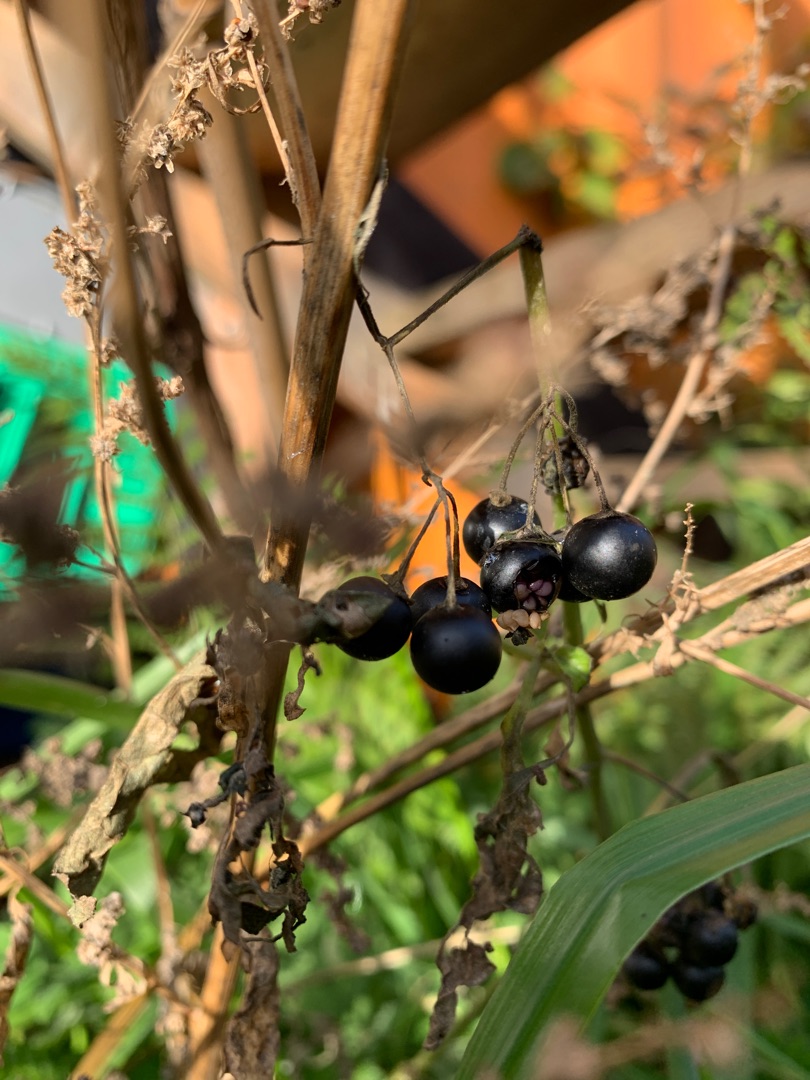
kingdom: Plantae
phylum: Tracheophyta
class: Magnoliopsida
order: Solanales
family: Solanaceae
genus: Solanum
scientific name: Solanum nigrum
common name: Sort natskygge (underart)
